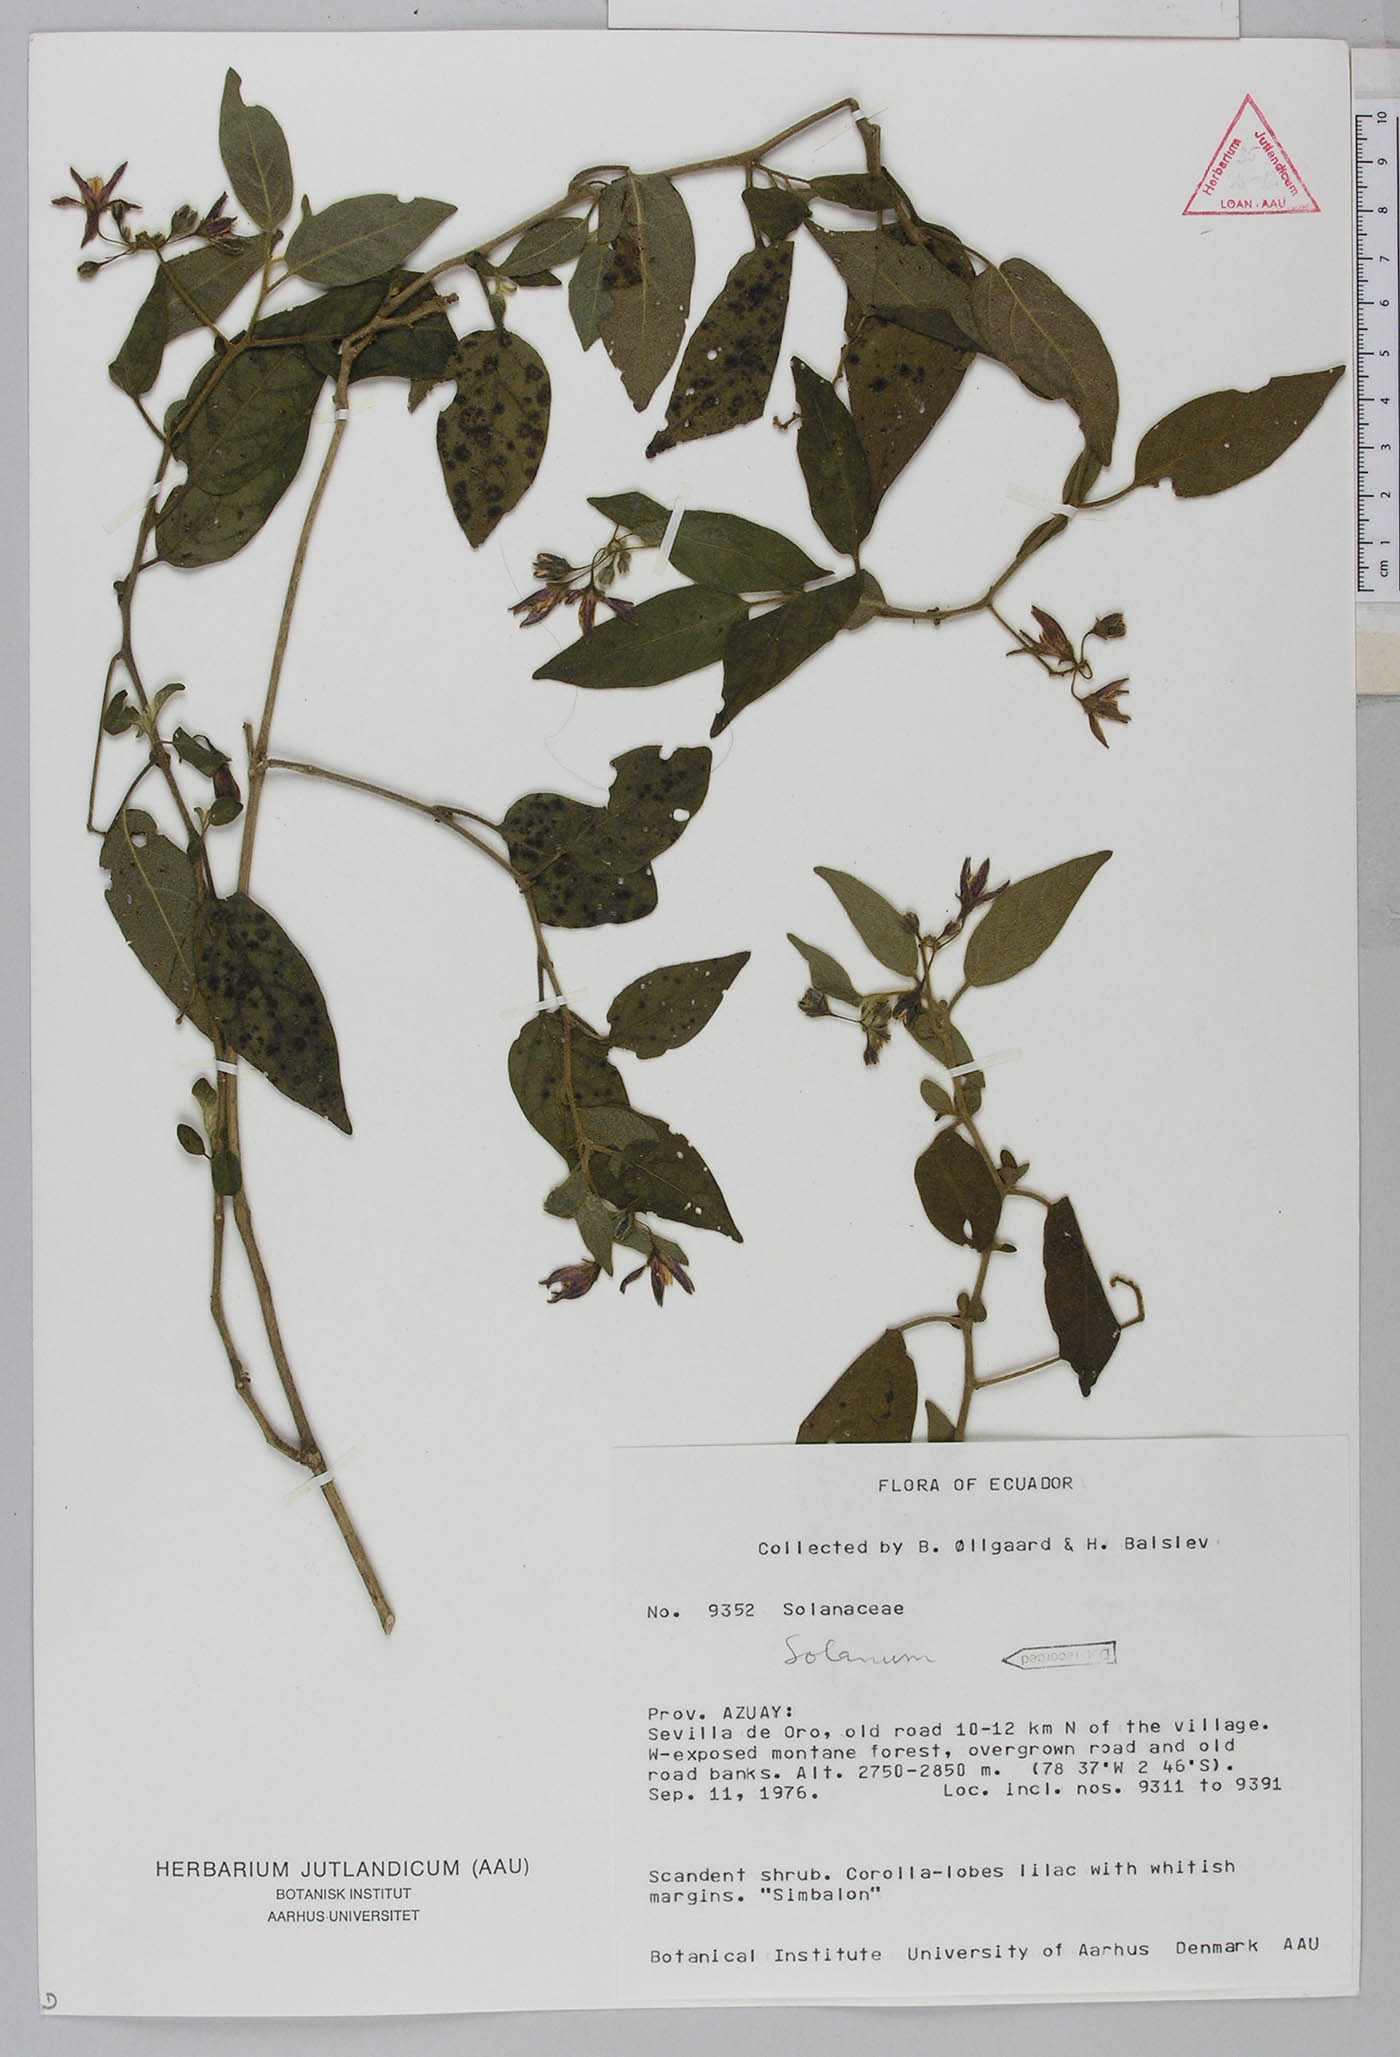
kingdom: Plantae
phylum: Tracheophyta
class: Magnoliopsida
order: Solanales
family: Solanaceae
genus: Solanum
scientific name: Solanum muricatum
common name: Peruvian pepino
